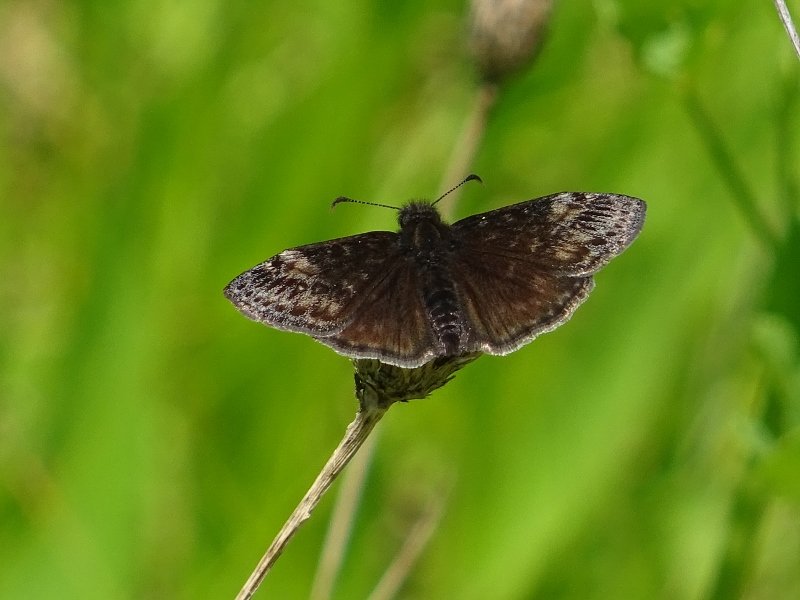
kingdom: Animalia
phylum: Arthropoda
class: Insecta
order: Lepidoptera
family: Hesperiidae
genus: Erynnis
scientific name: Erynnis
